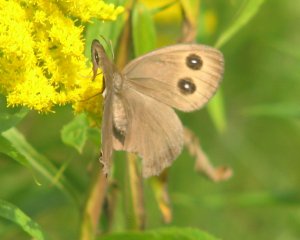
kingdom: Animalia
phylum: Arthropoda
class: Insecta
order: Lepidoptera
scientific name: Lepidoptera
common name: Butterflies
